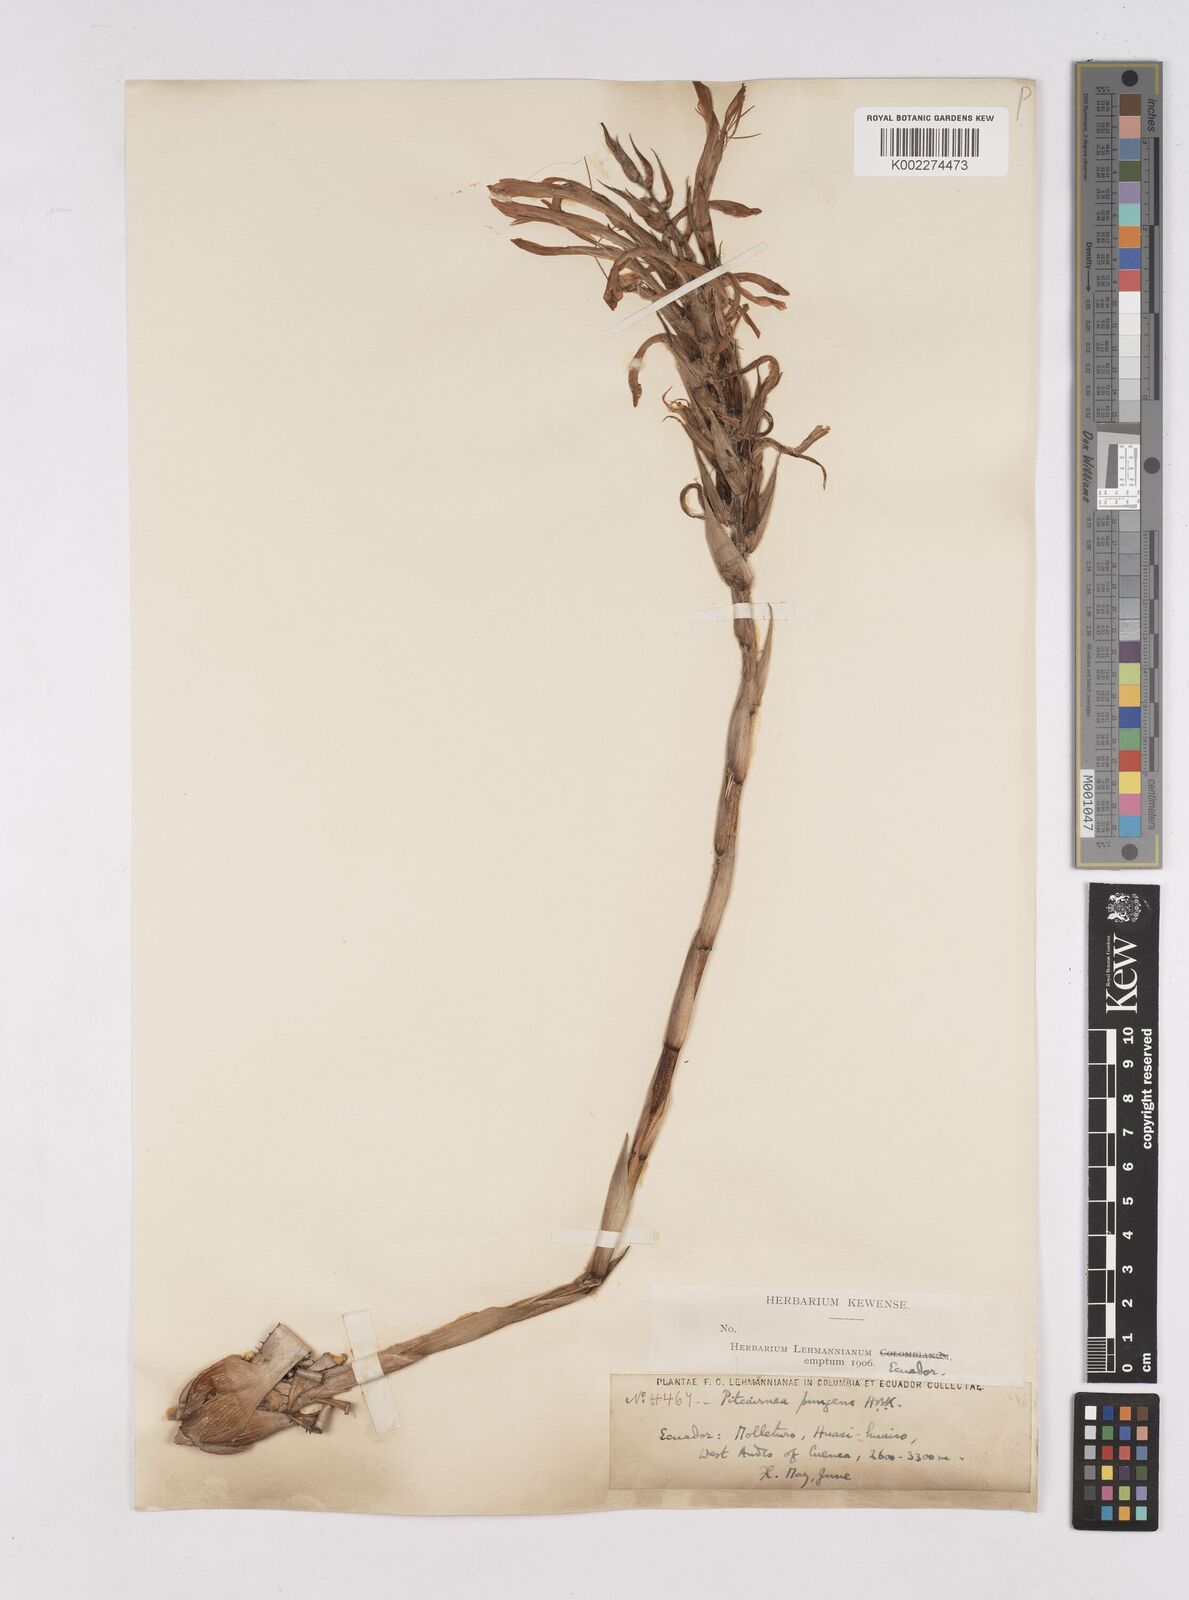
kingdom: Plantae
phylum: Tracheophyta
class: Liliopsida
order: Poales
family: Bromeliaceae
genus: Pitcairnia
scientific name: Pitcairnia pungens
